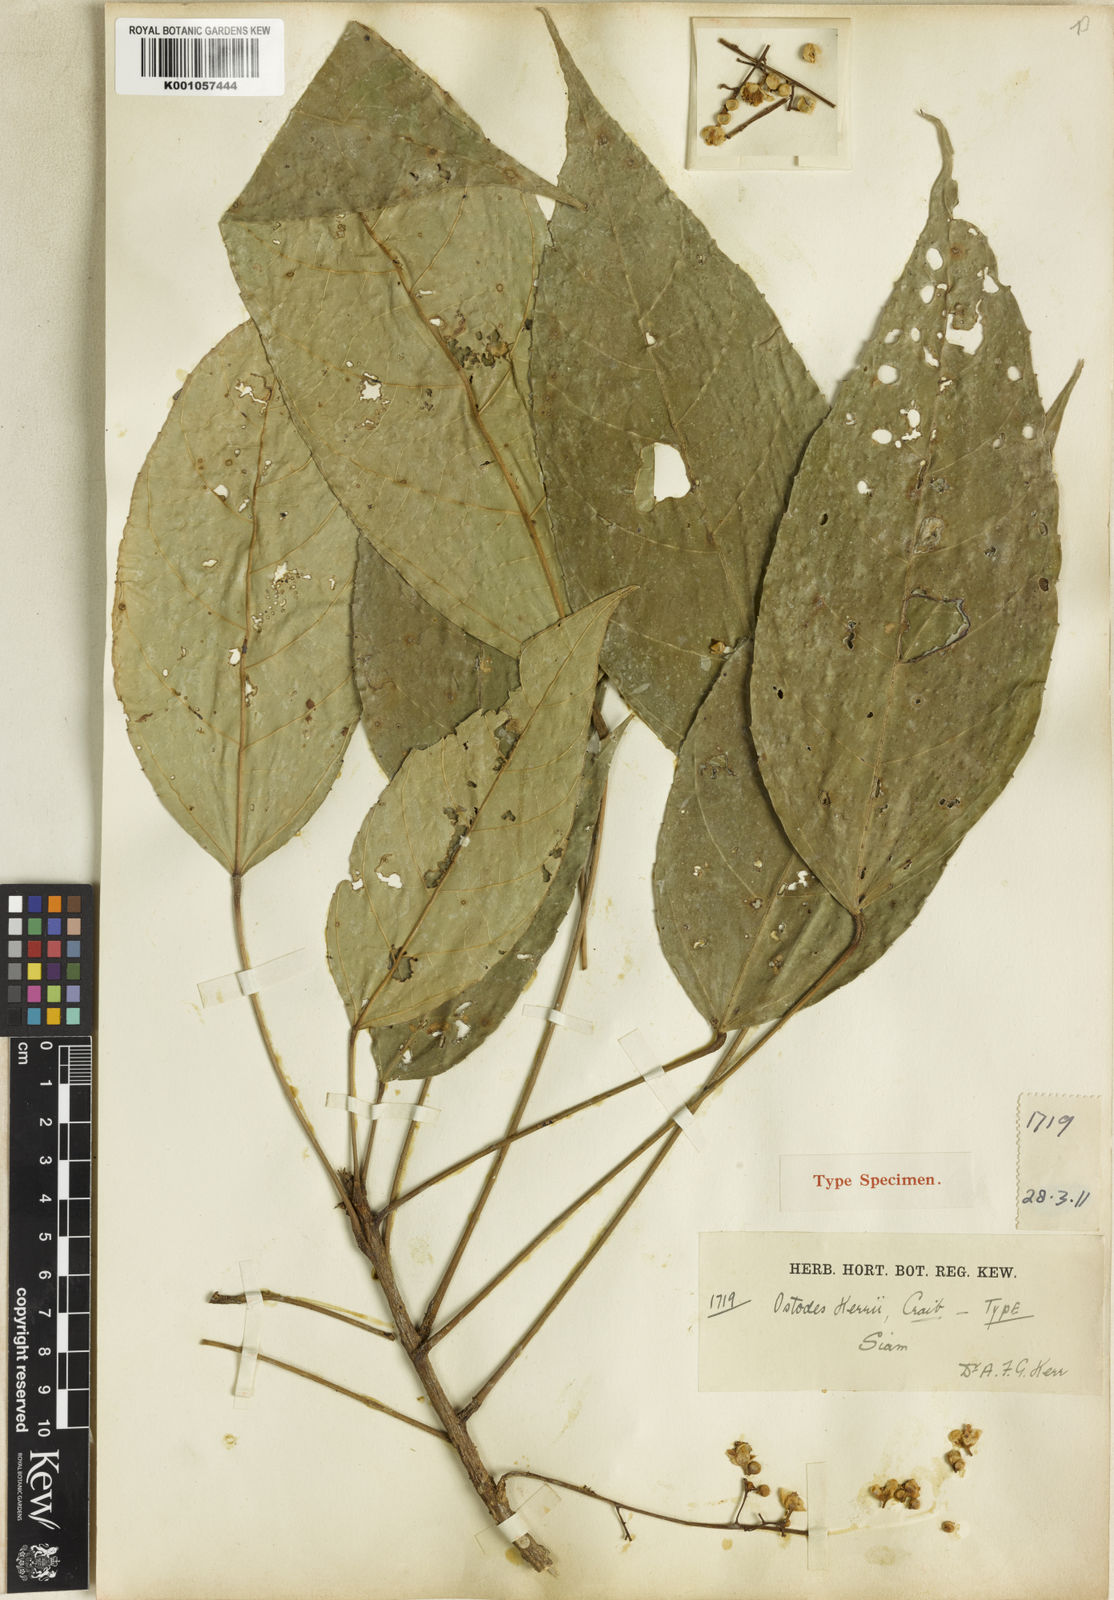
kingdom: Plantae
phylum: Tracheophyta
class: Magnoliopsida
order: Malpighiales
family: Euphorbiaceae
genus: Ostodes
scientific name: Ostodes paniculata
